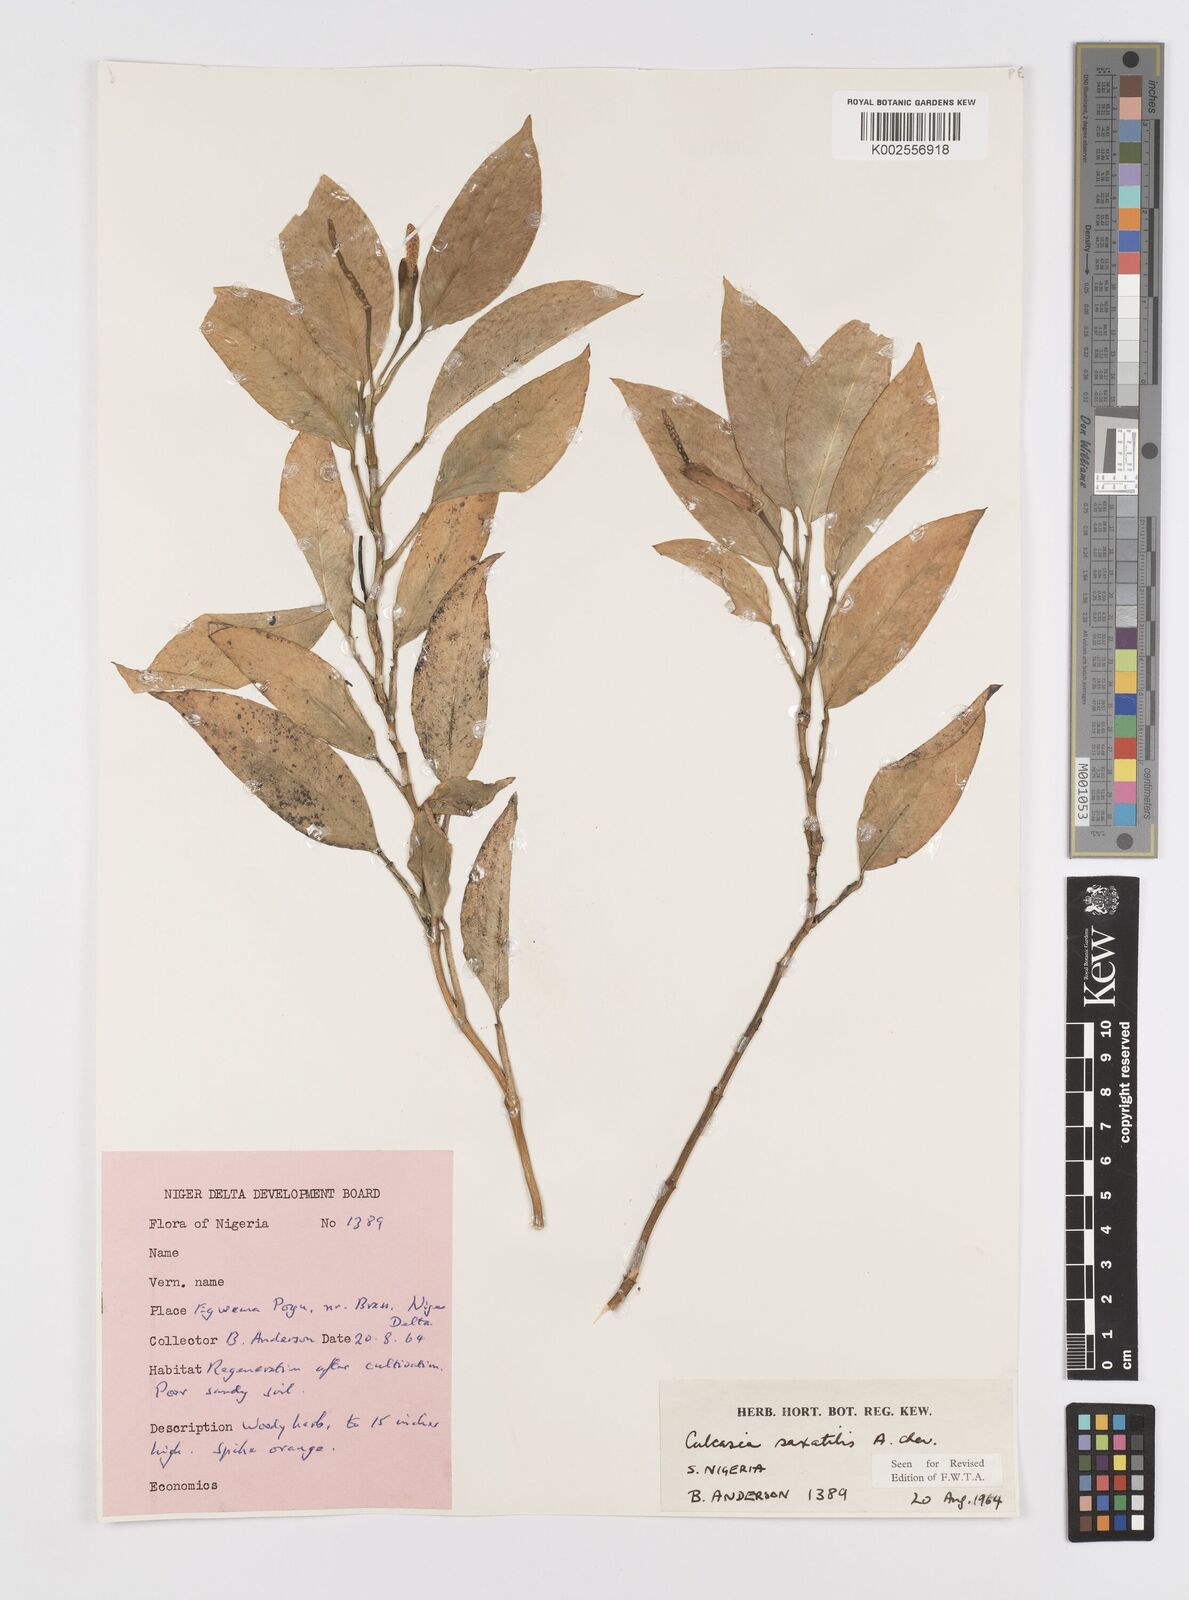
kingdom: Plantae
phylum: Tracheophyta
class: Liliopsida
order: Alismatales
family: Araceae
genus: Culcasia
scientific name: Culcasia scandens
